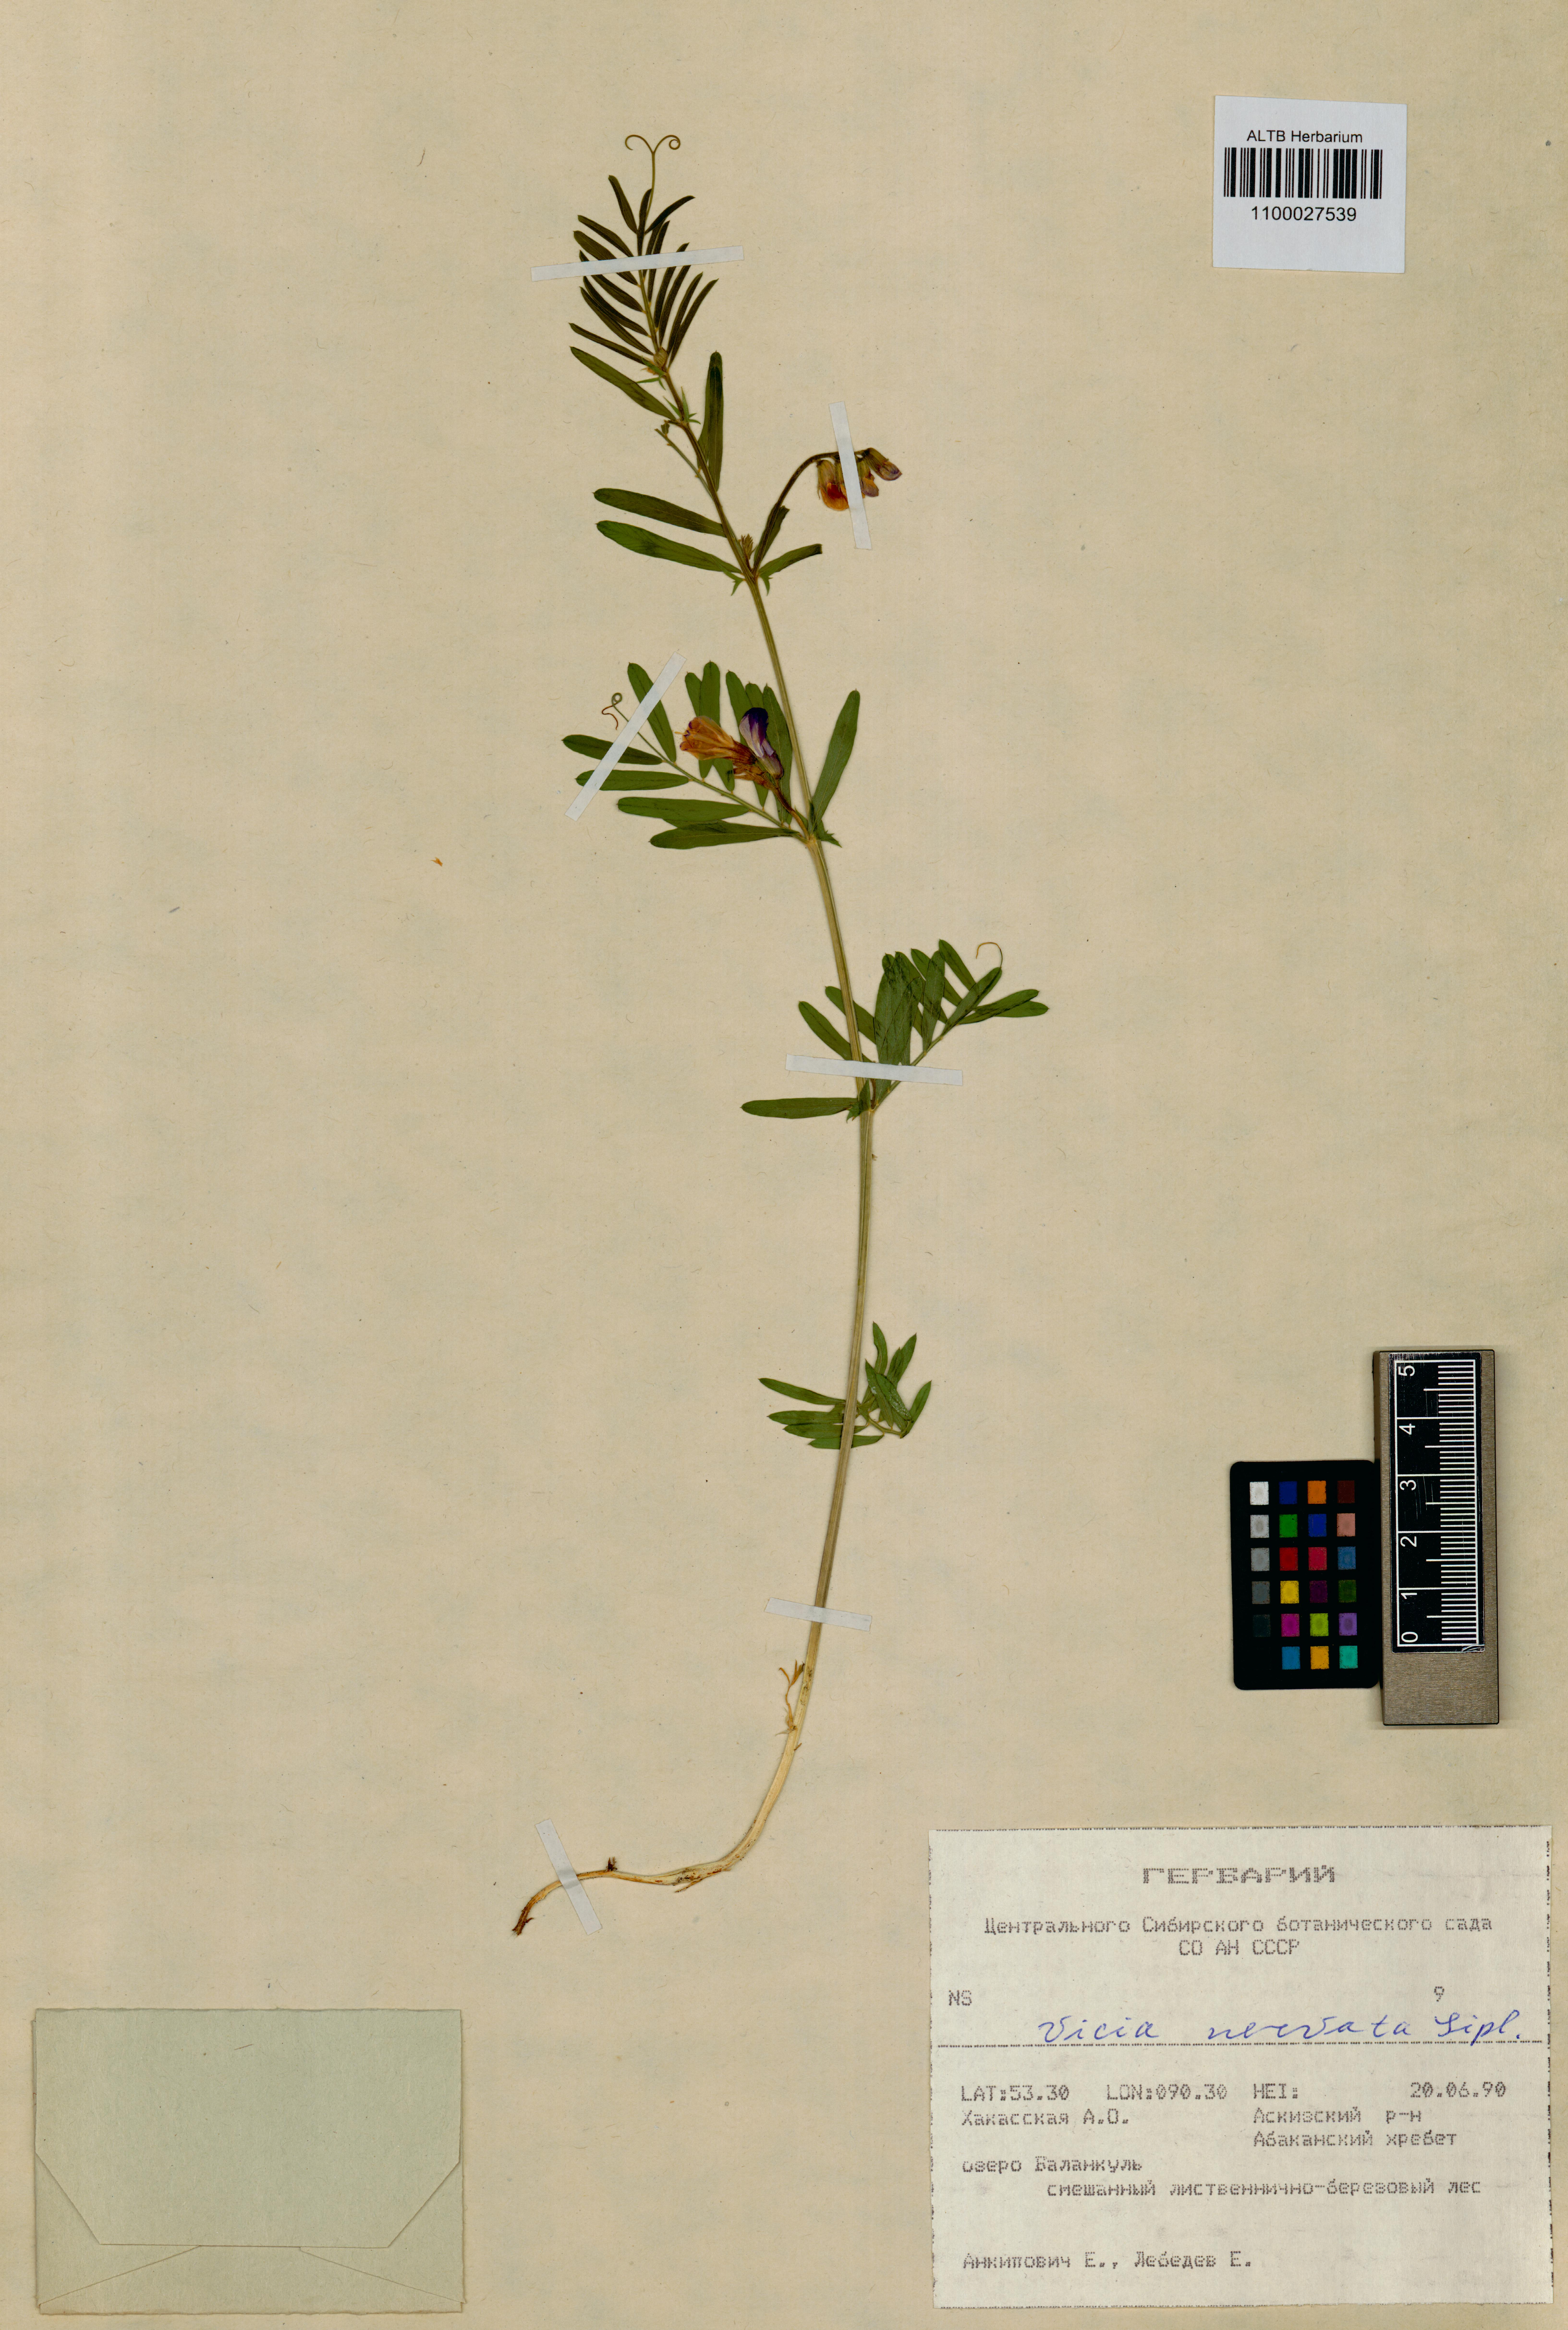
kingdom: Plantae
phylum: Tracheophyta
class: Magnoliopsida
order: Fabales
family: Fabaceae
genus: Vicia
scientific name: Vicia multicaulis
